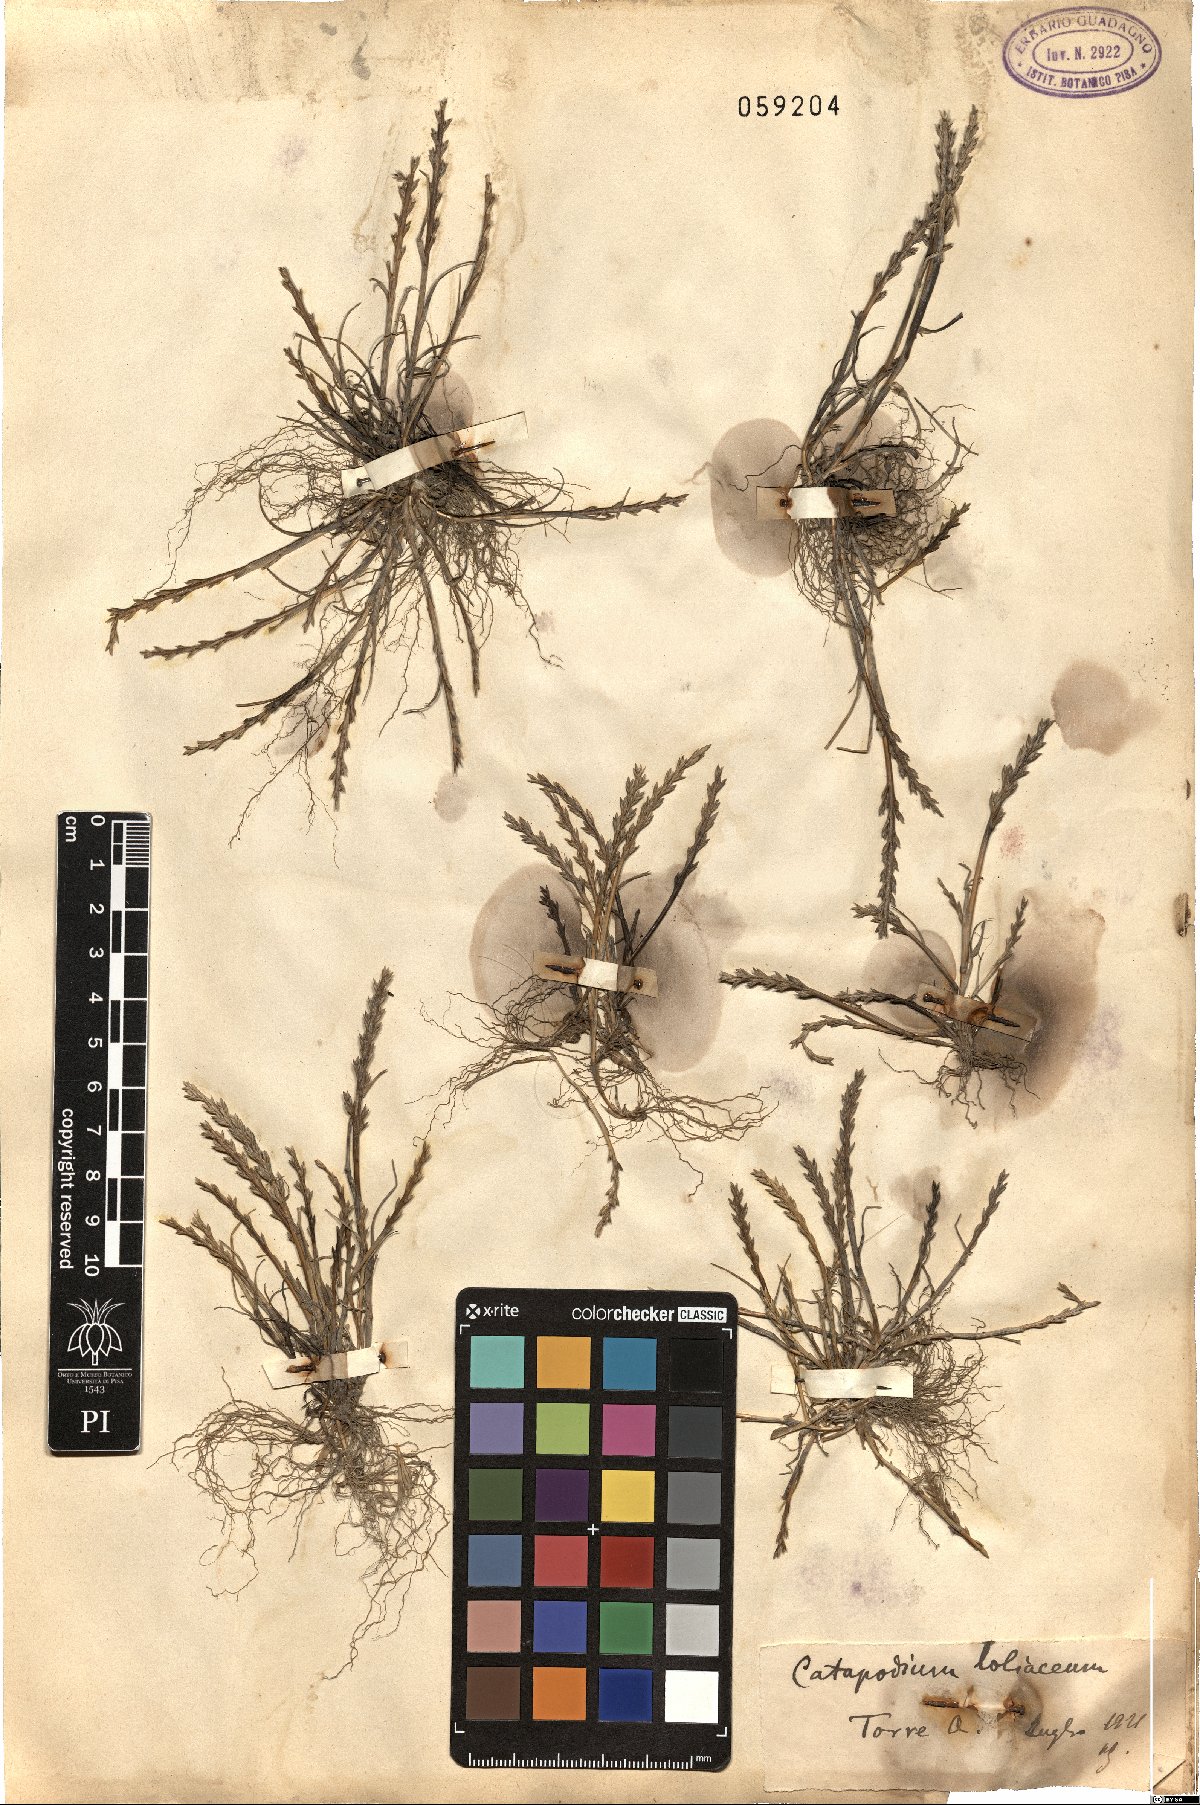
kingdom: Plantae
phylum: Tracheophyta
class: Liliopsida
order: Poales
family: Poaceae
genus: Catapodium
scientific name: Catapodium marinum
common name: Sea fern-grass
